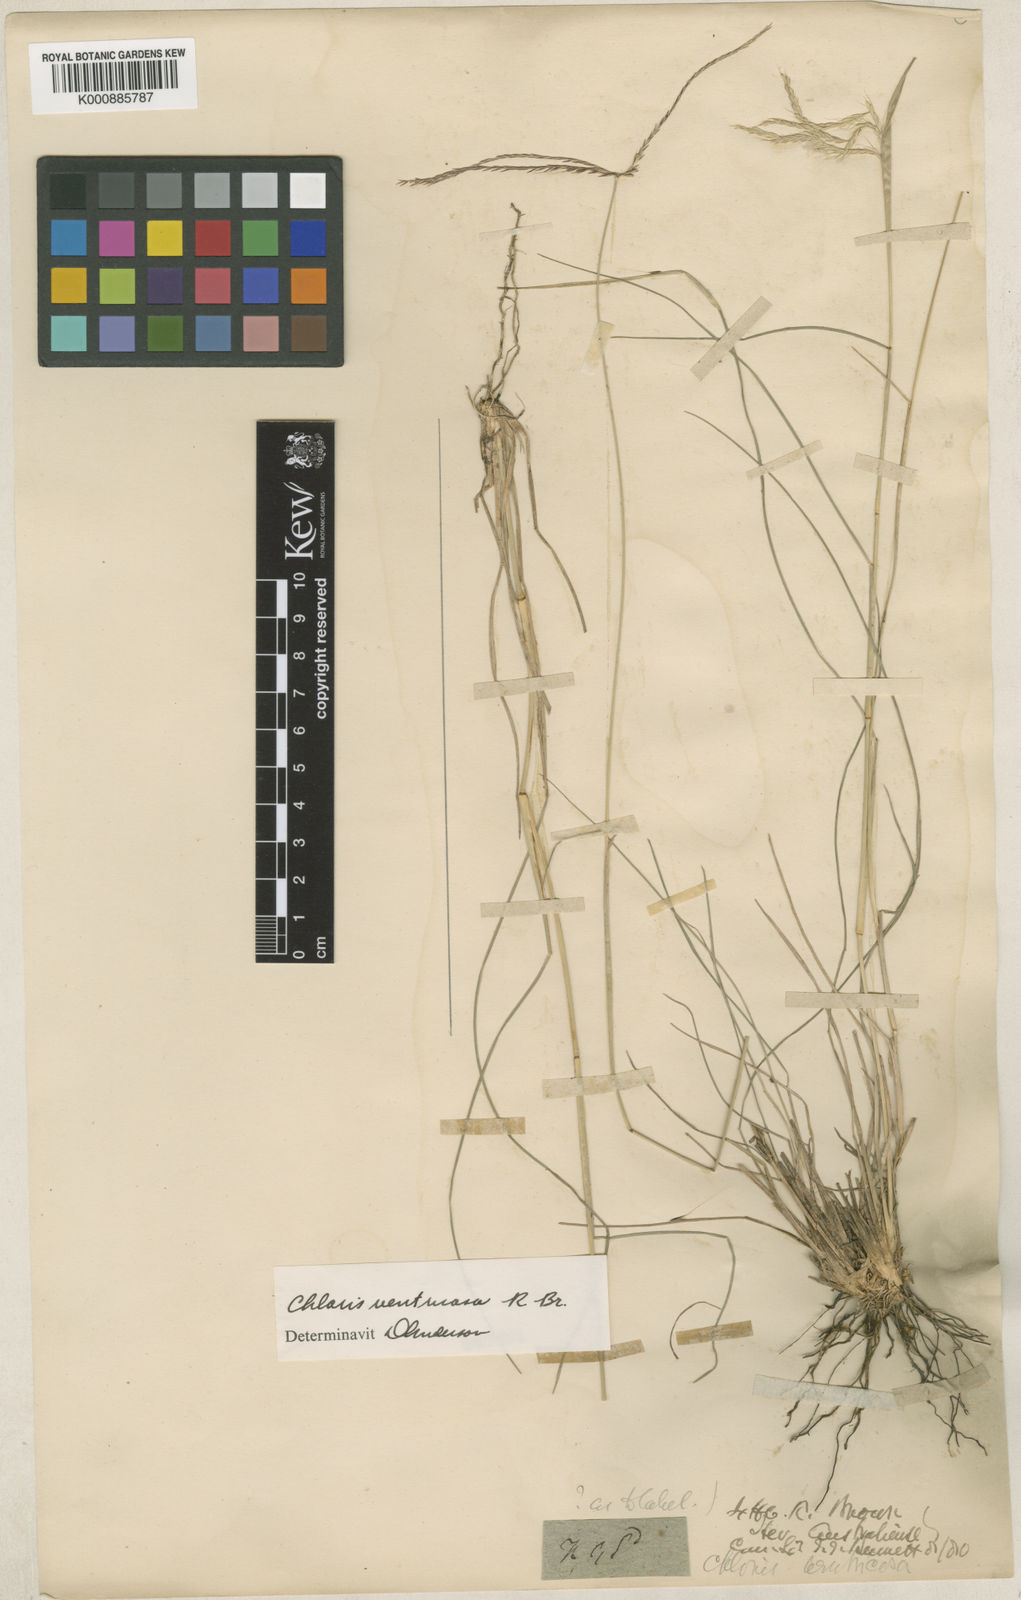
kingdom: Plantae
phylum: Tracheophyta
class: Liliopsida
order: Poales
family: Poaceae
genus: Chloris
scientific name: Chloris ventricosa
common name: Australian windmill grass
